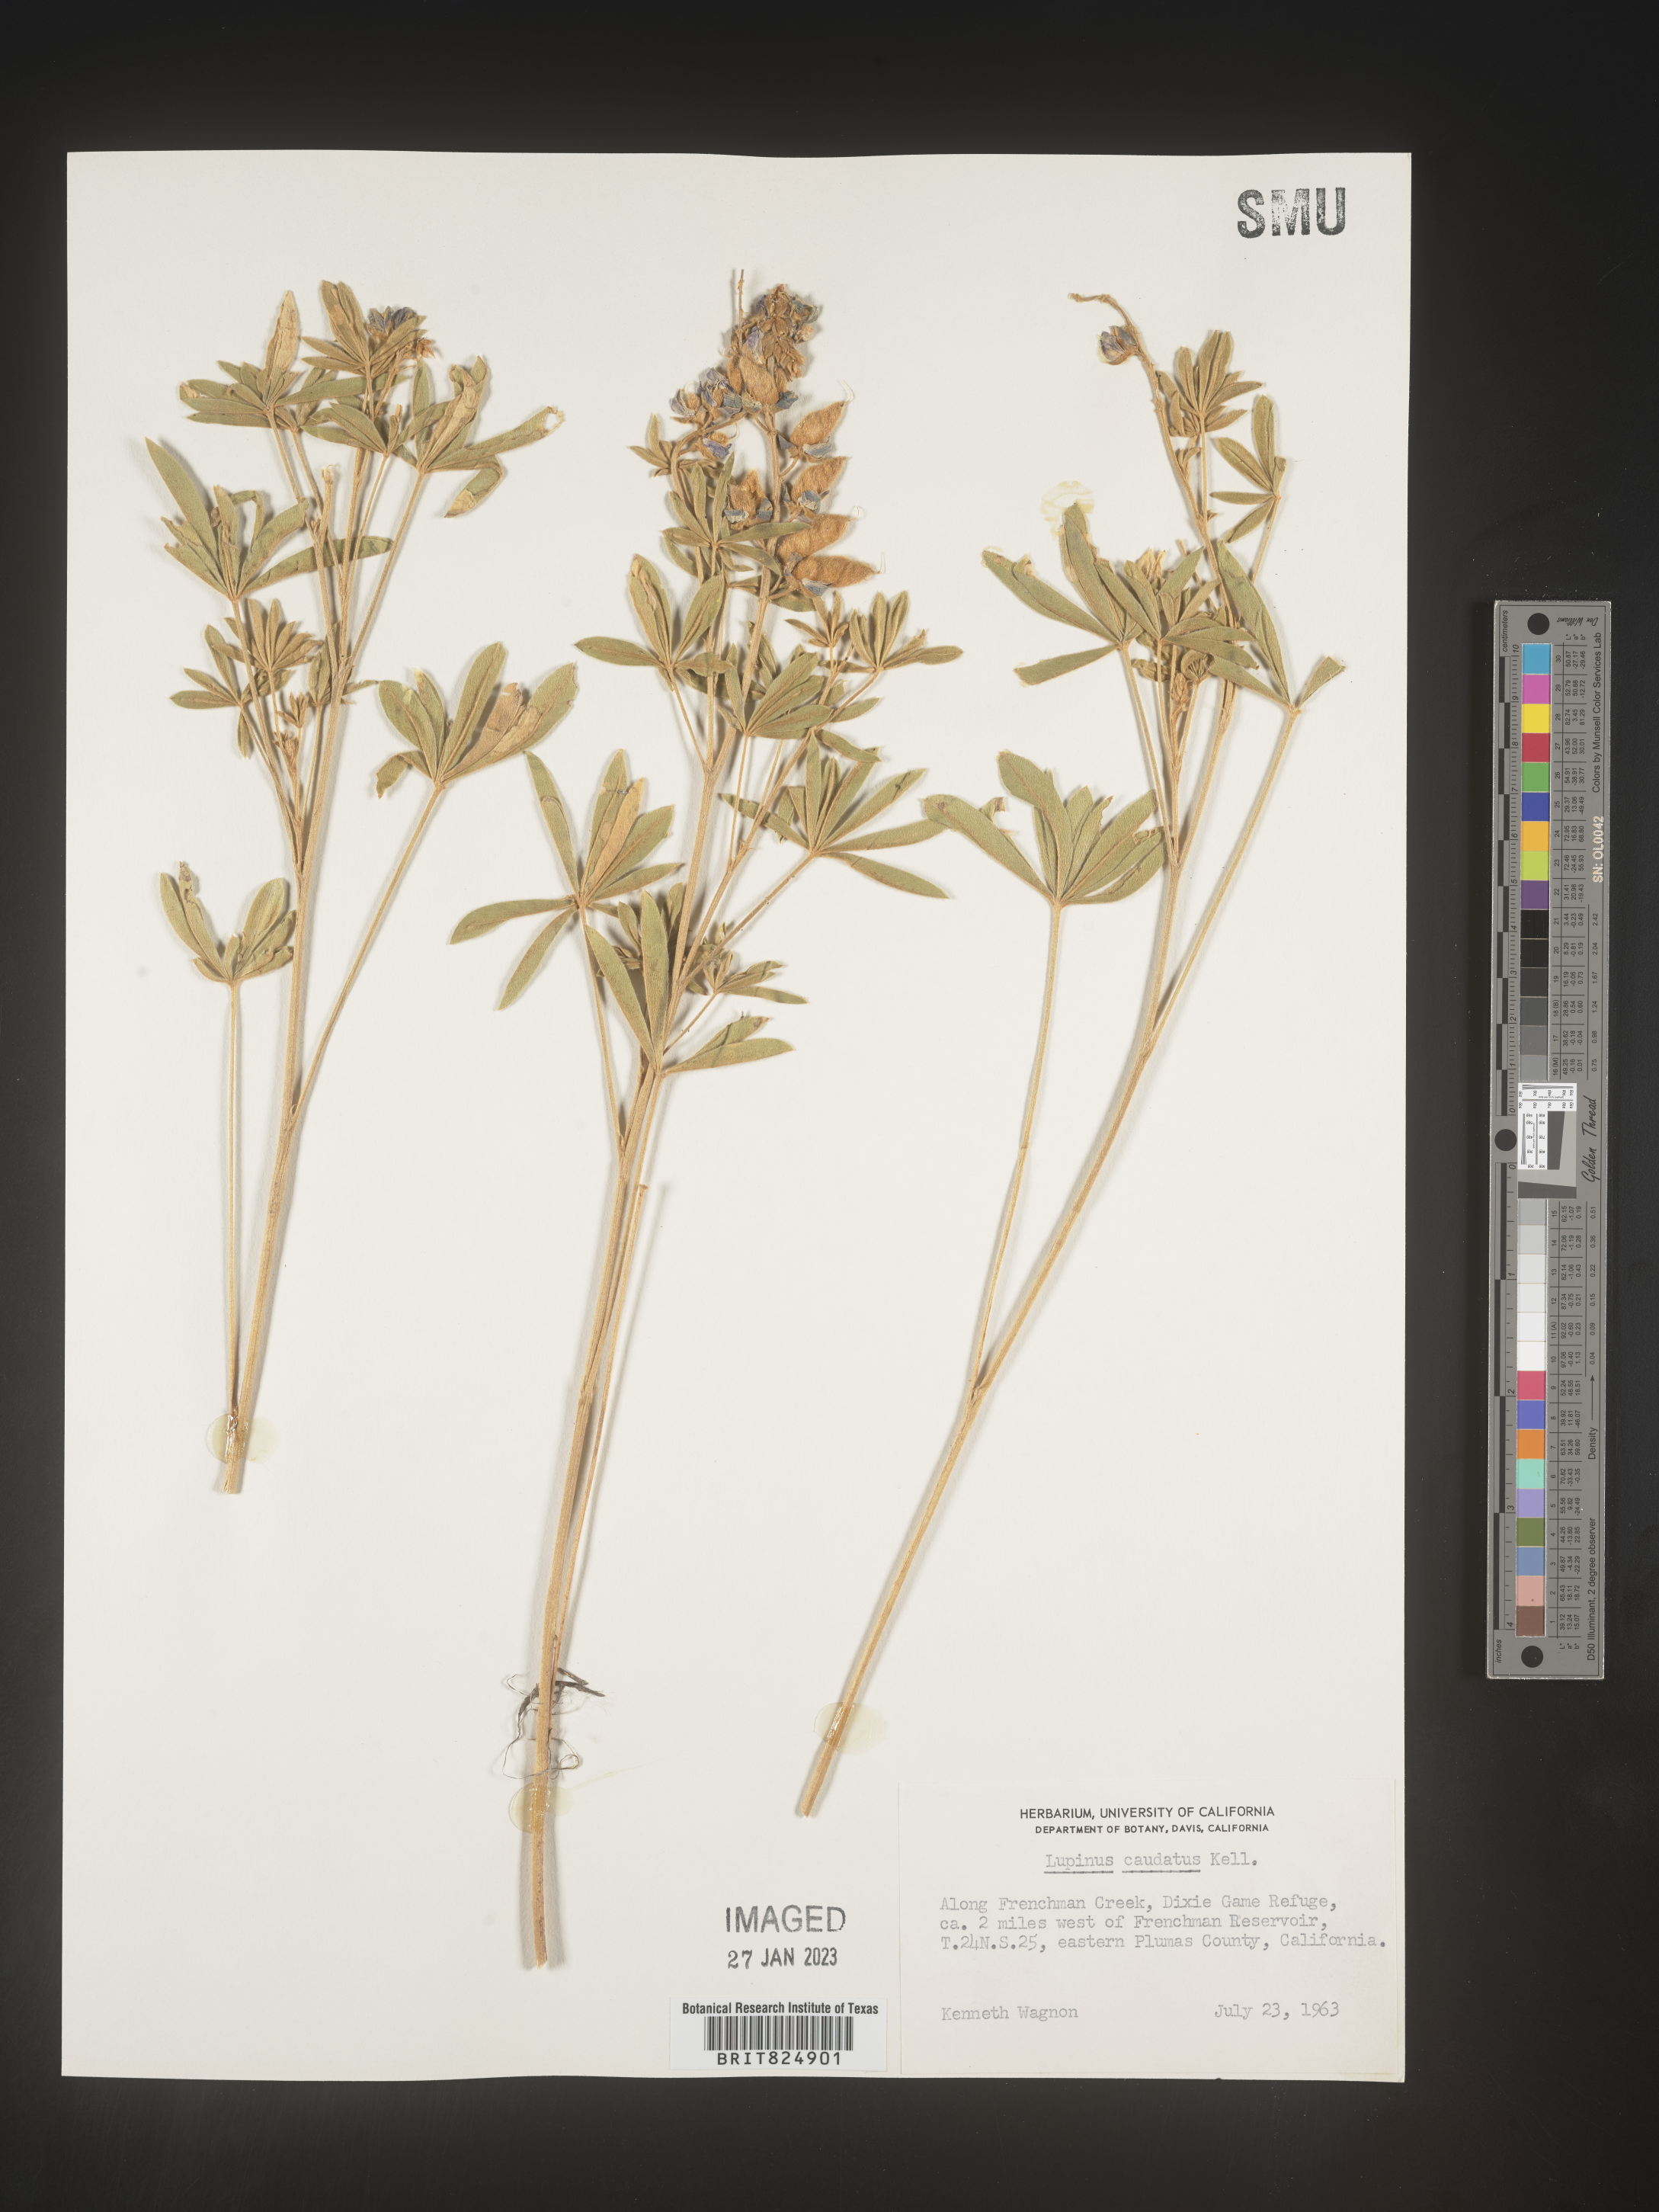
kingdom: Plantae
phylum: Tracheophyta
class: Magnoliopsida
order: Fabales
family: Fabaceae
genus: Lupinus
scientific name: Lupinus caudatus
